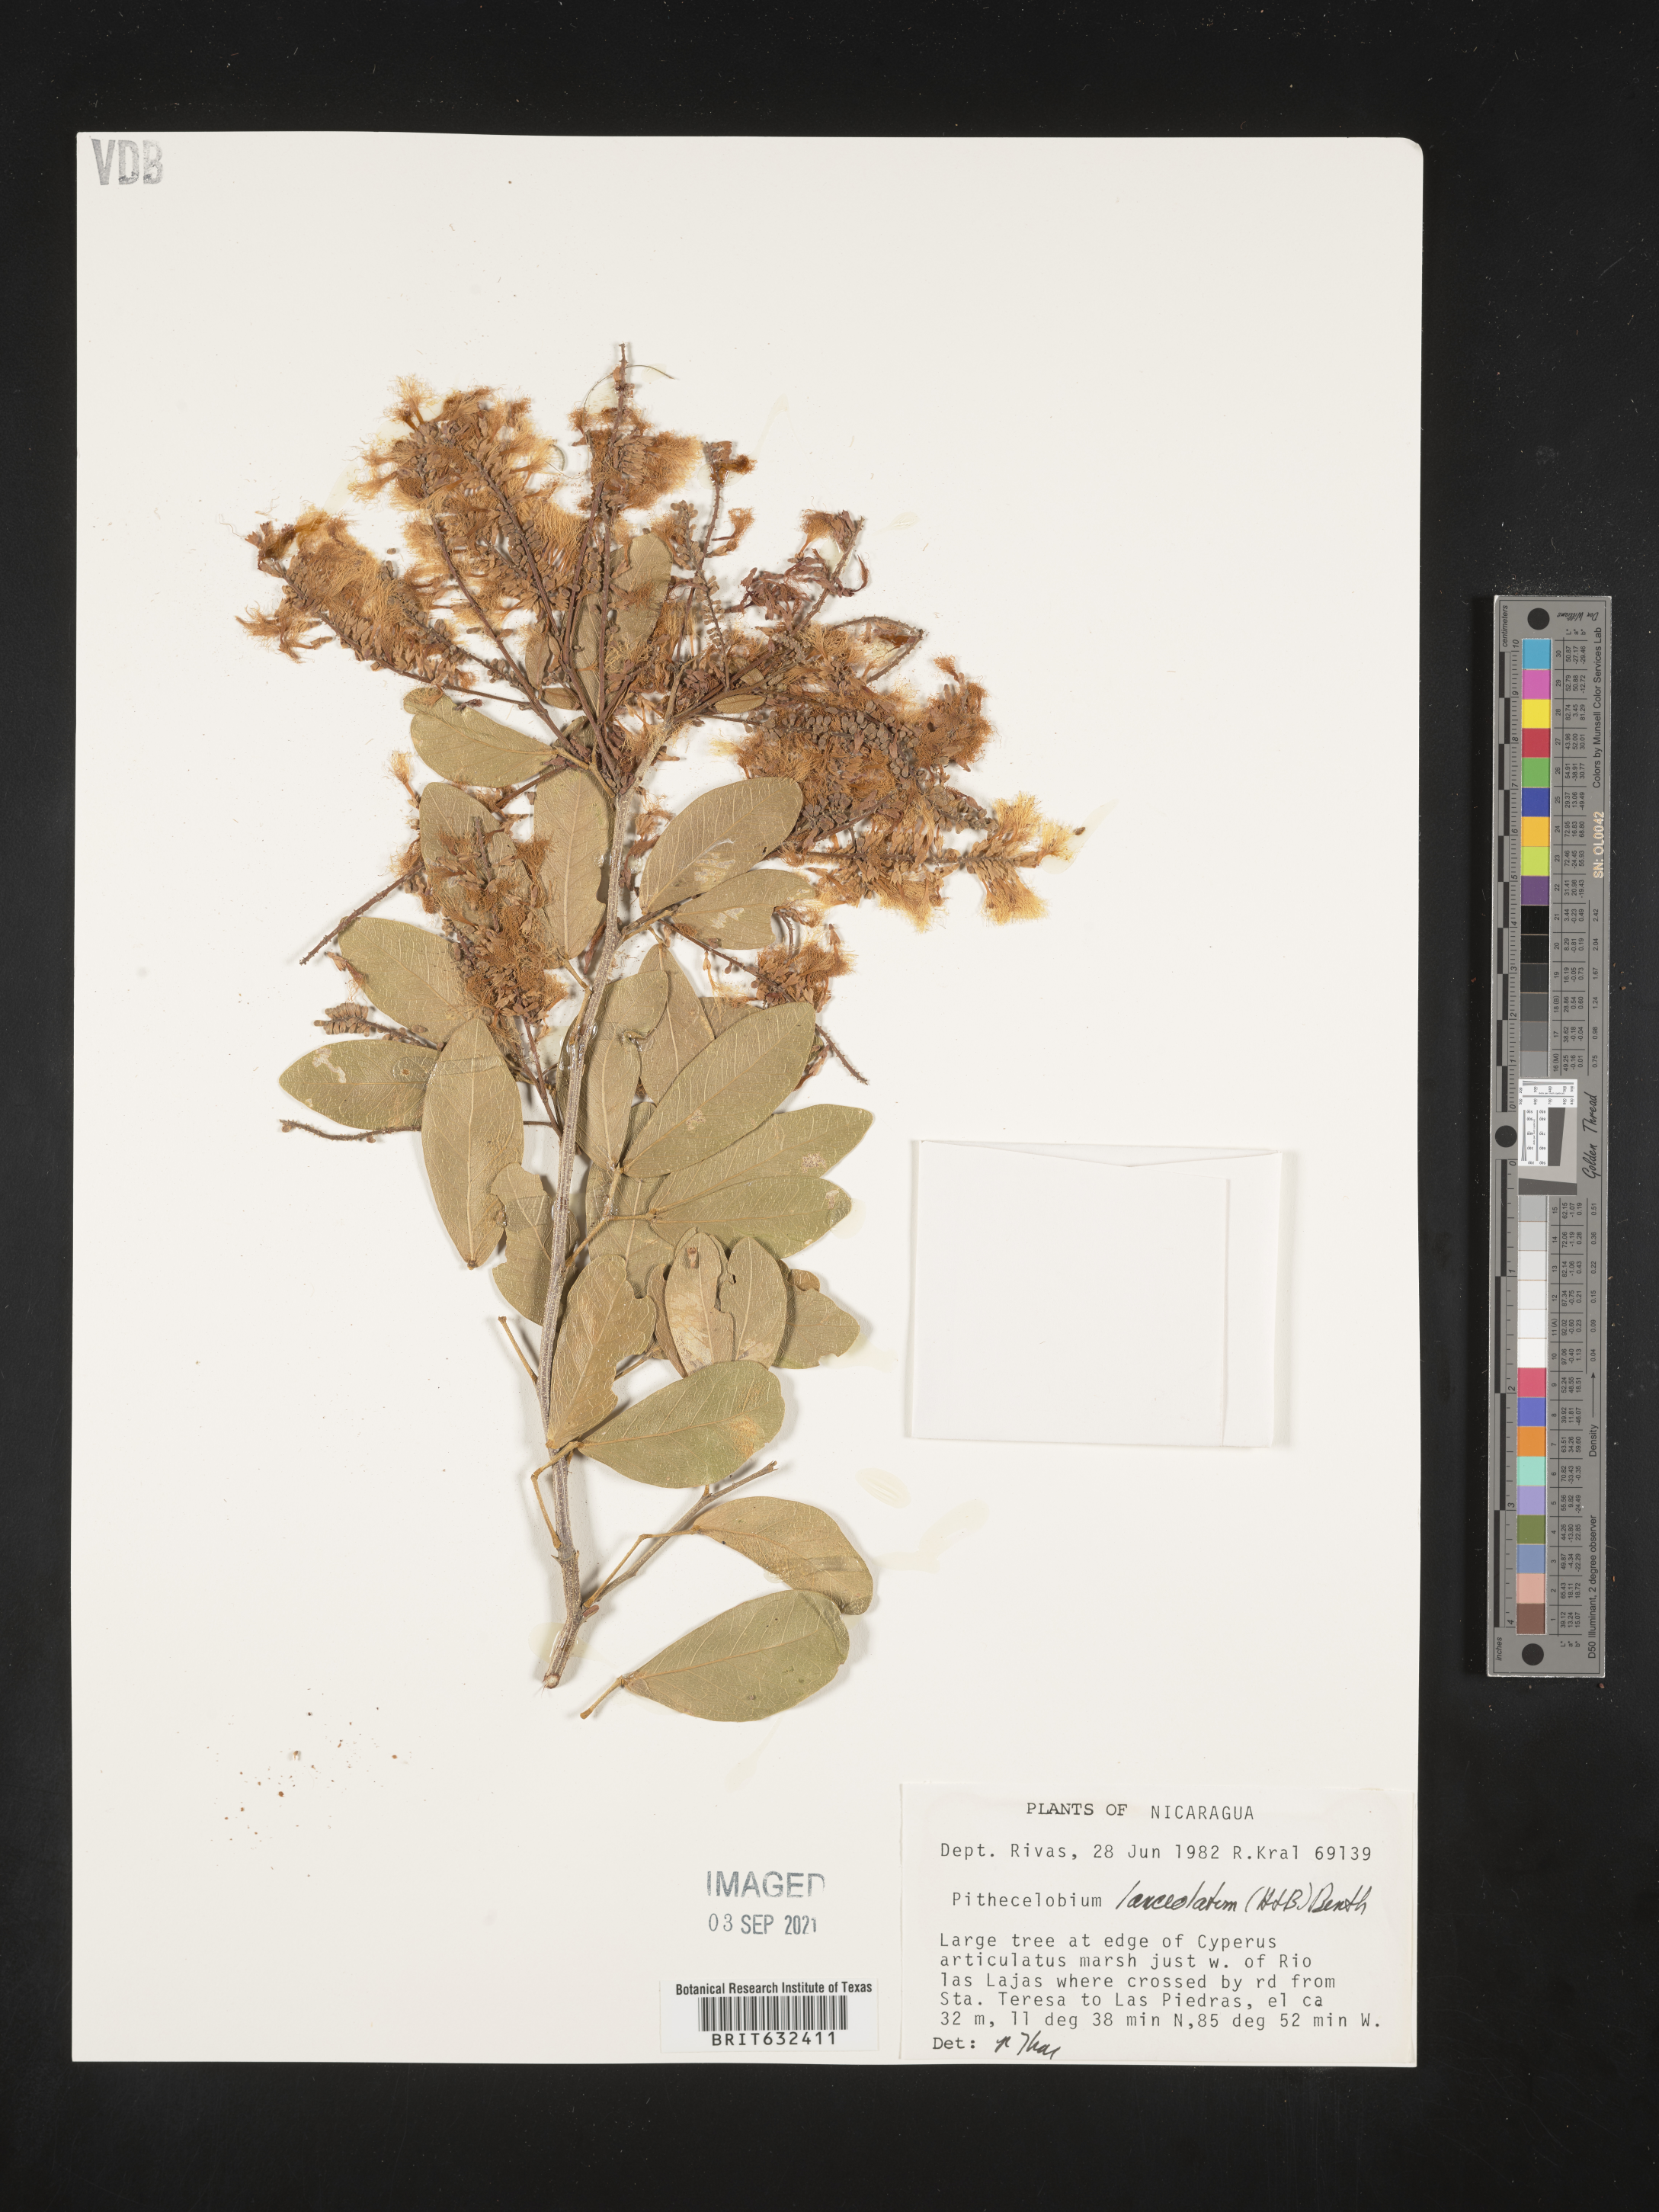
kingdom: Plantae
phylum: Tracheophyta
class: Magnoliopsida
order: Fabales
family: Fabaceae
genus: Pithecellobium
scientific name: Pithecellobium
